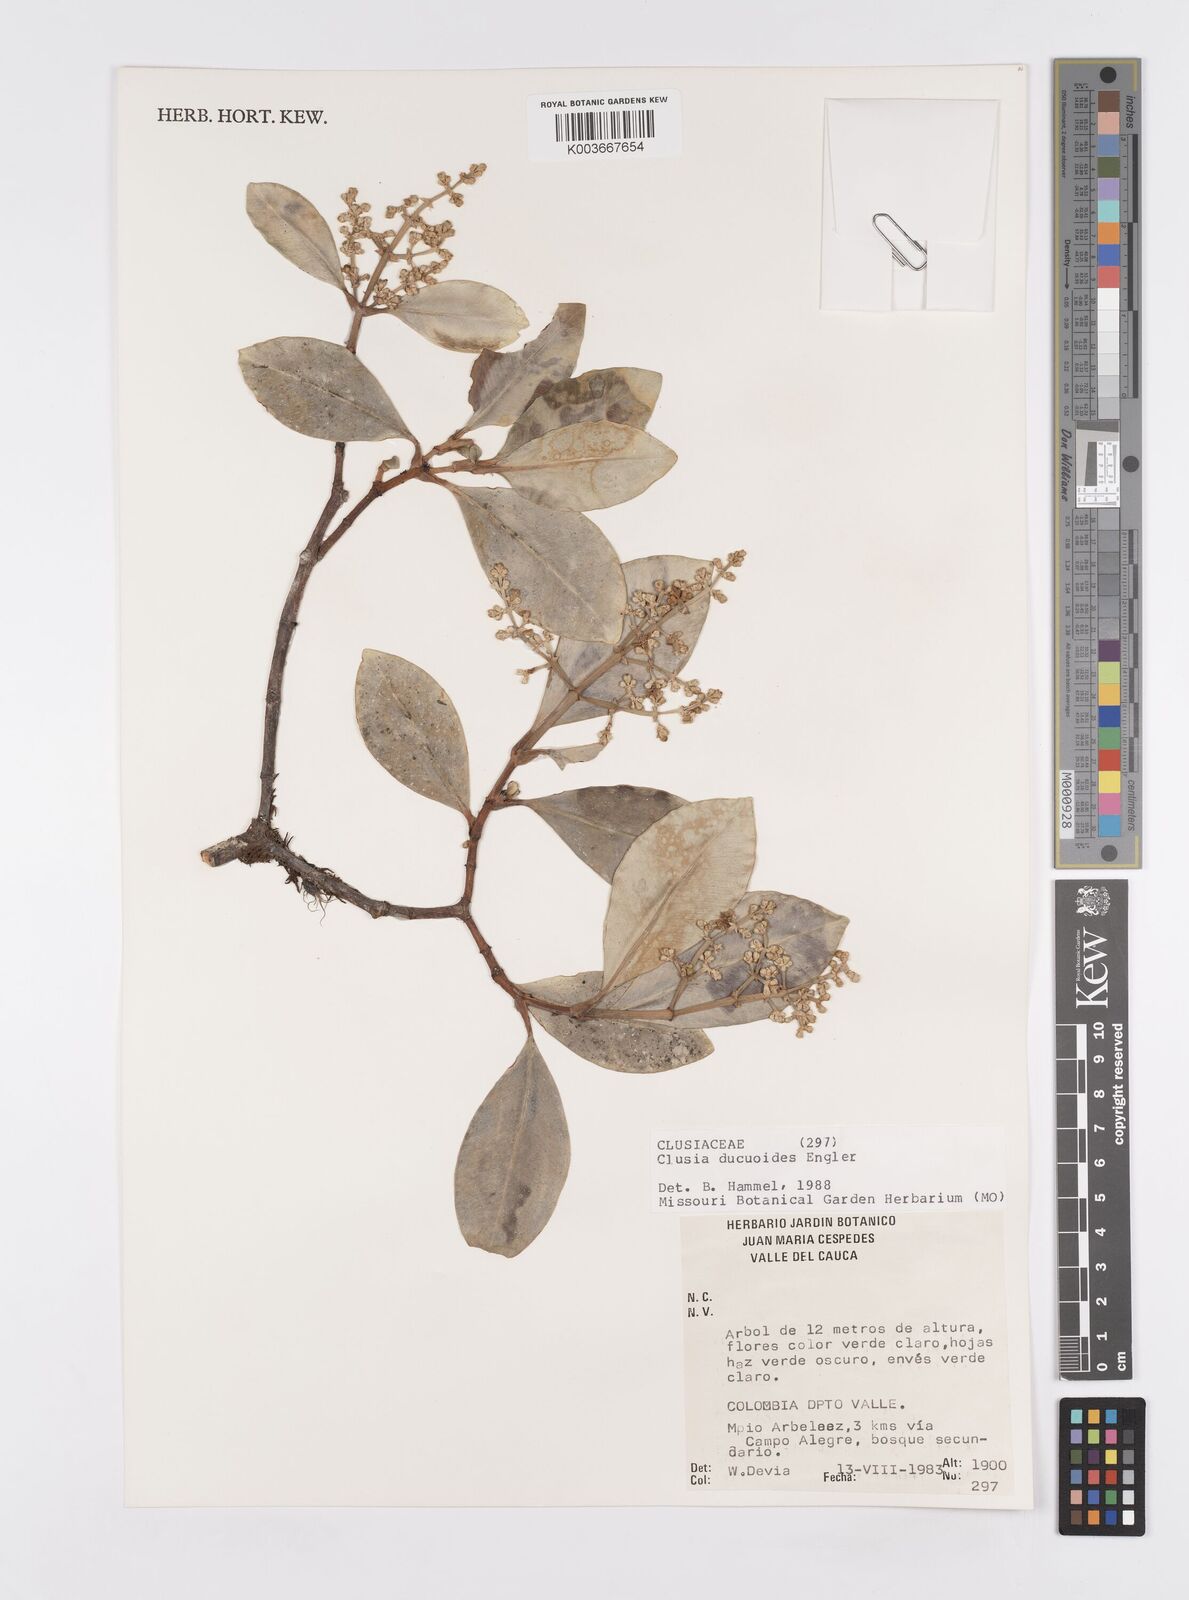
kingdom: Plantae
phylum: Tracheophyta
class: Magnoliopsida
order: Malpighiales
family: Clusiaceae
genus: Clusia
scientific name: Clusia ducuoides
